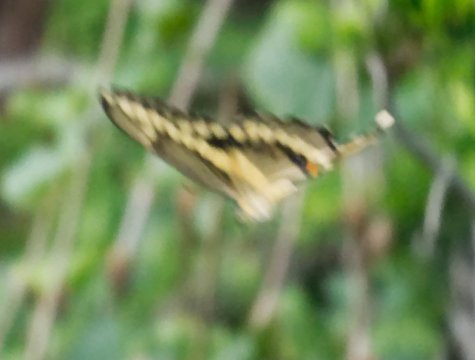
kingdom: Animalia
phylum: Arthropoda
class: Insecta
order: Lepidoptera
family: Papilionidae
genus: Papilio
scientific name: Papilio cresphontes
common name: Eastern Giant Swallowtail
